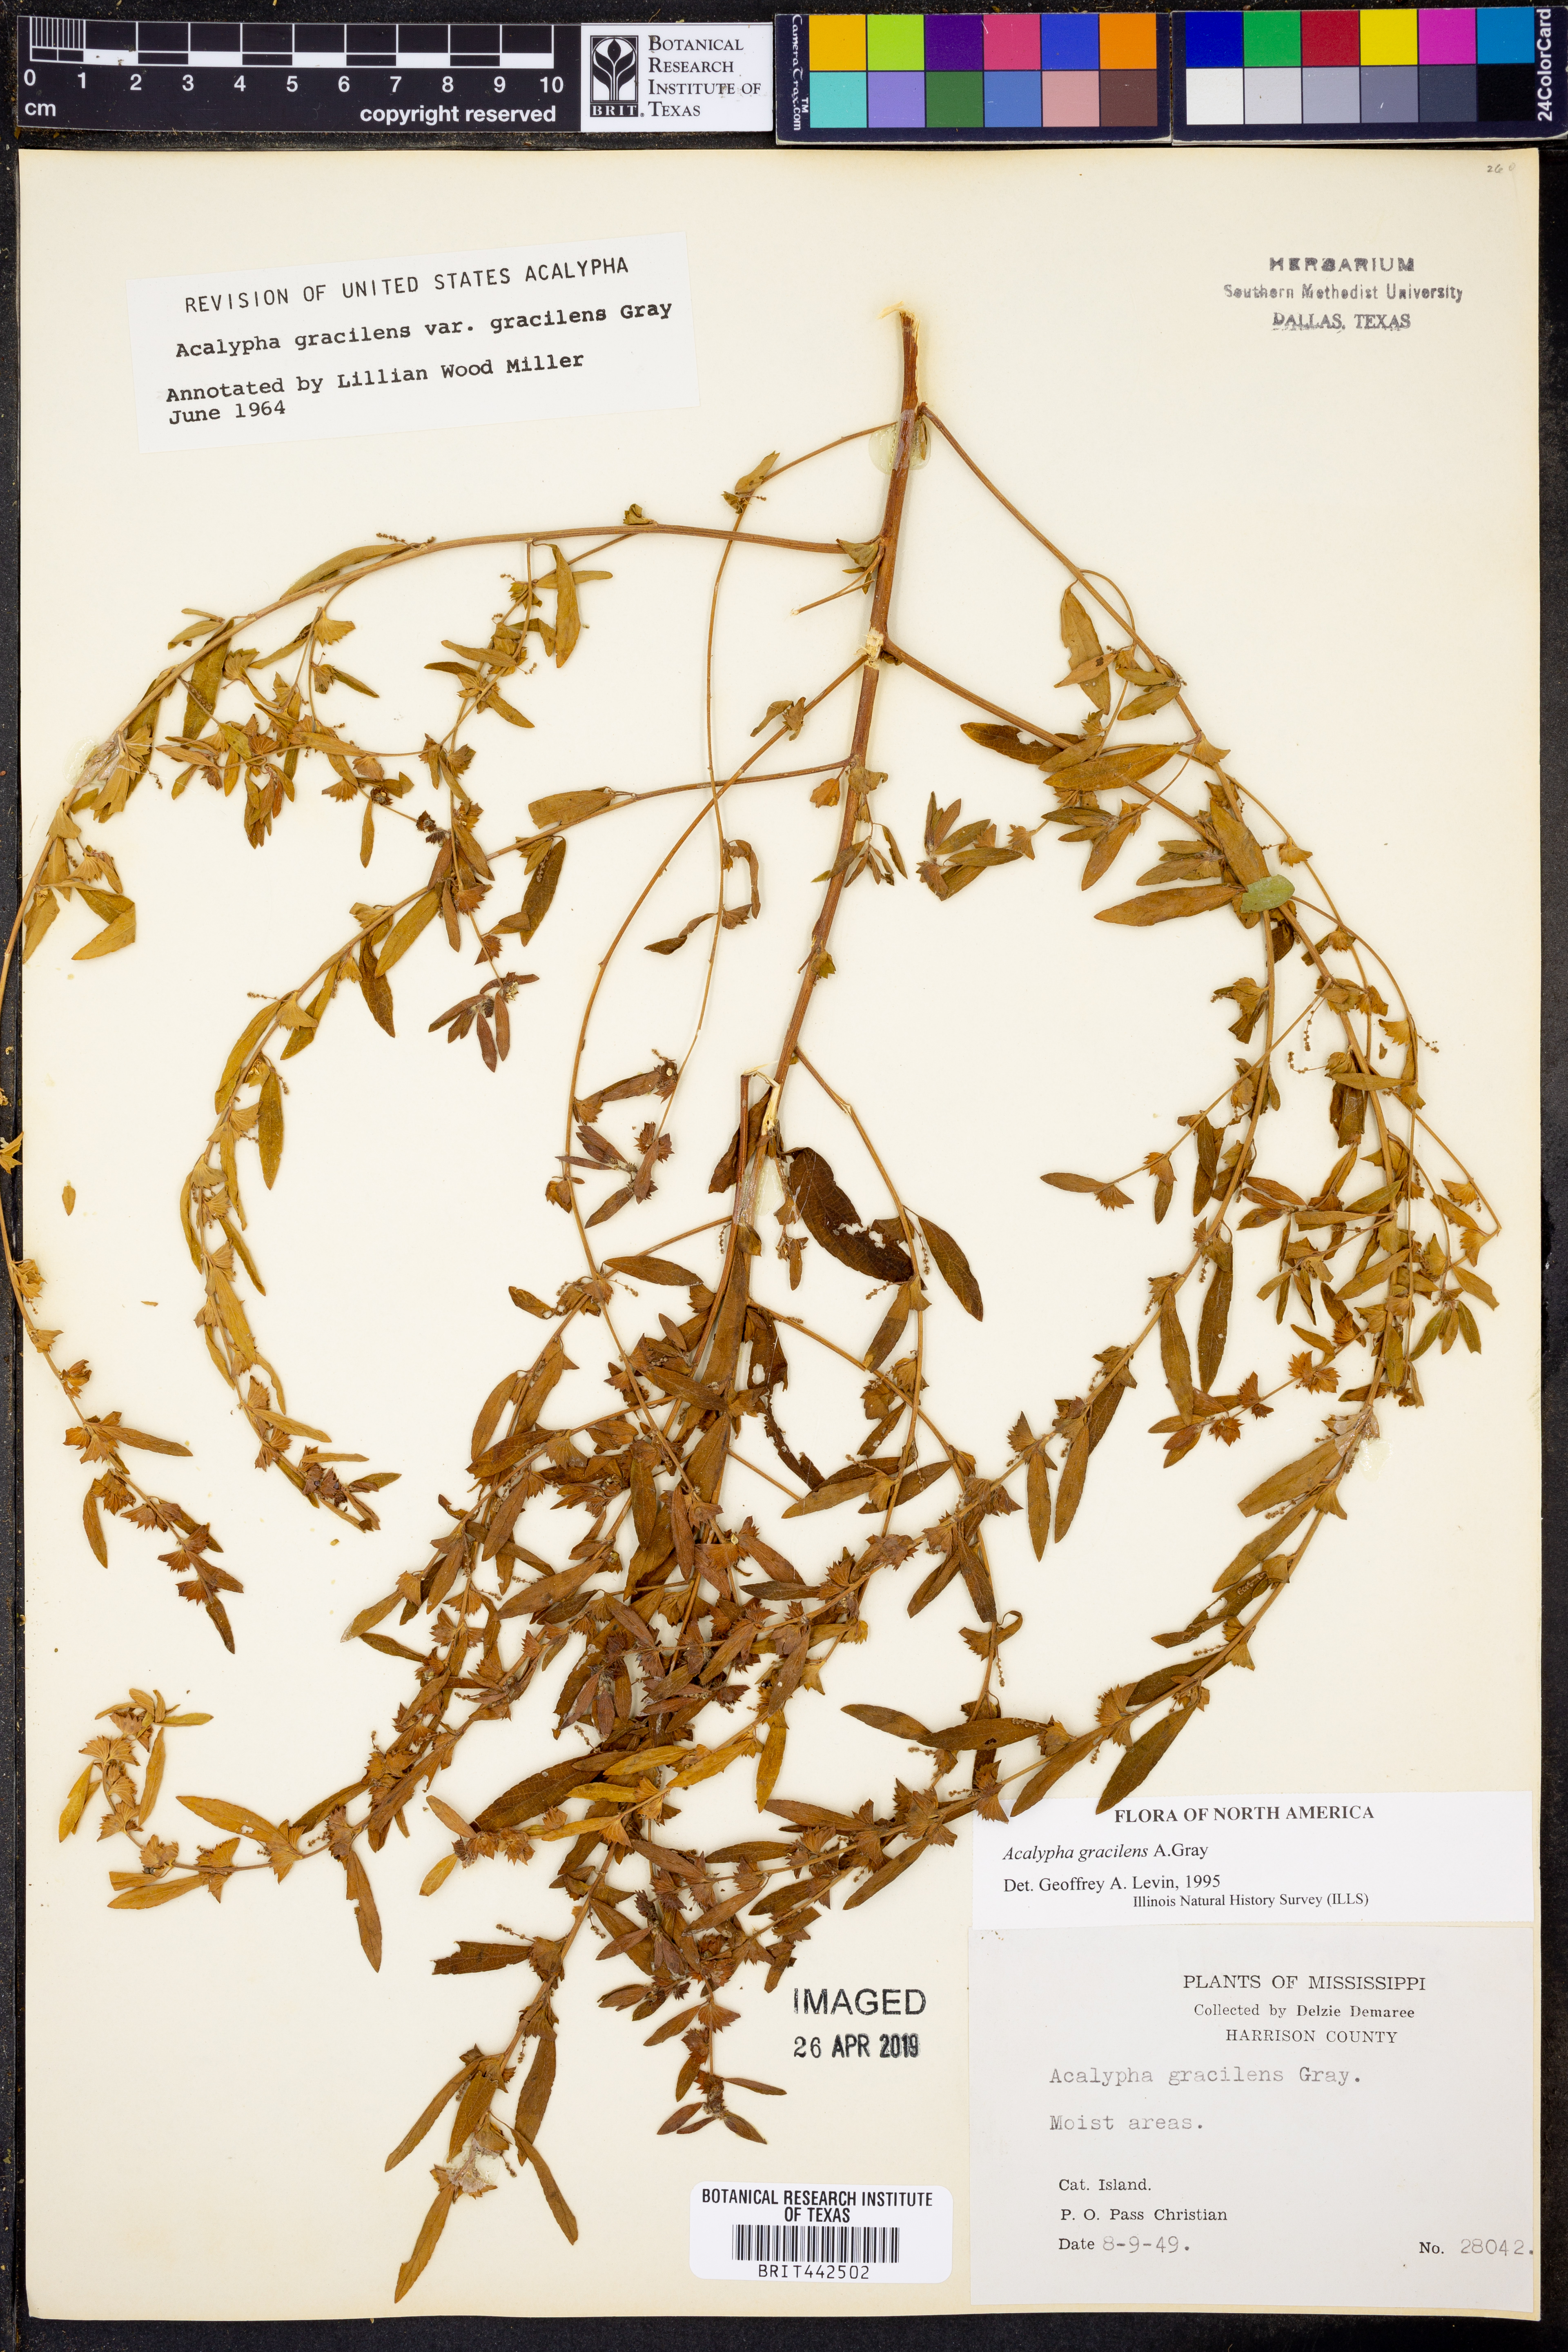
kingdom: Plantae
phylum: Tracheophyta
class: Magnoliopsida
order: Malpighiales
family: Euphorbiaceae
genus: Acalypha
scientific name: Acalypha gracilens
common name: Slender three-seeded mercury
